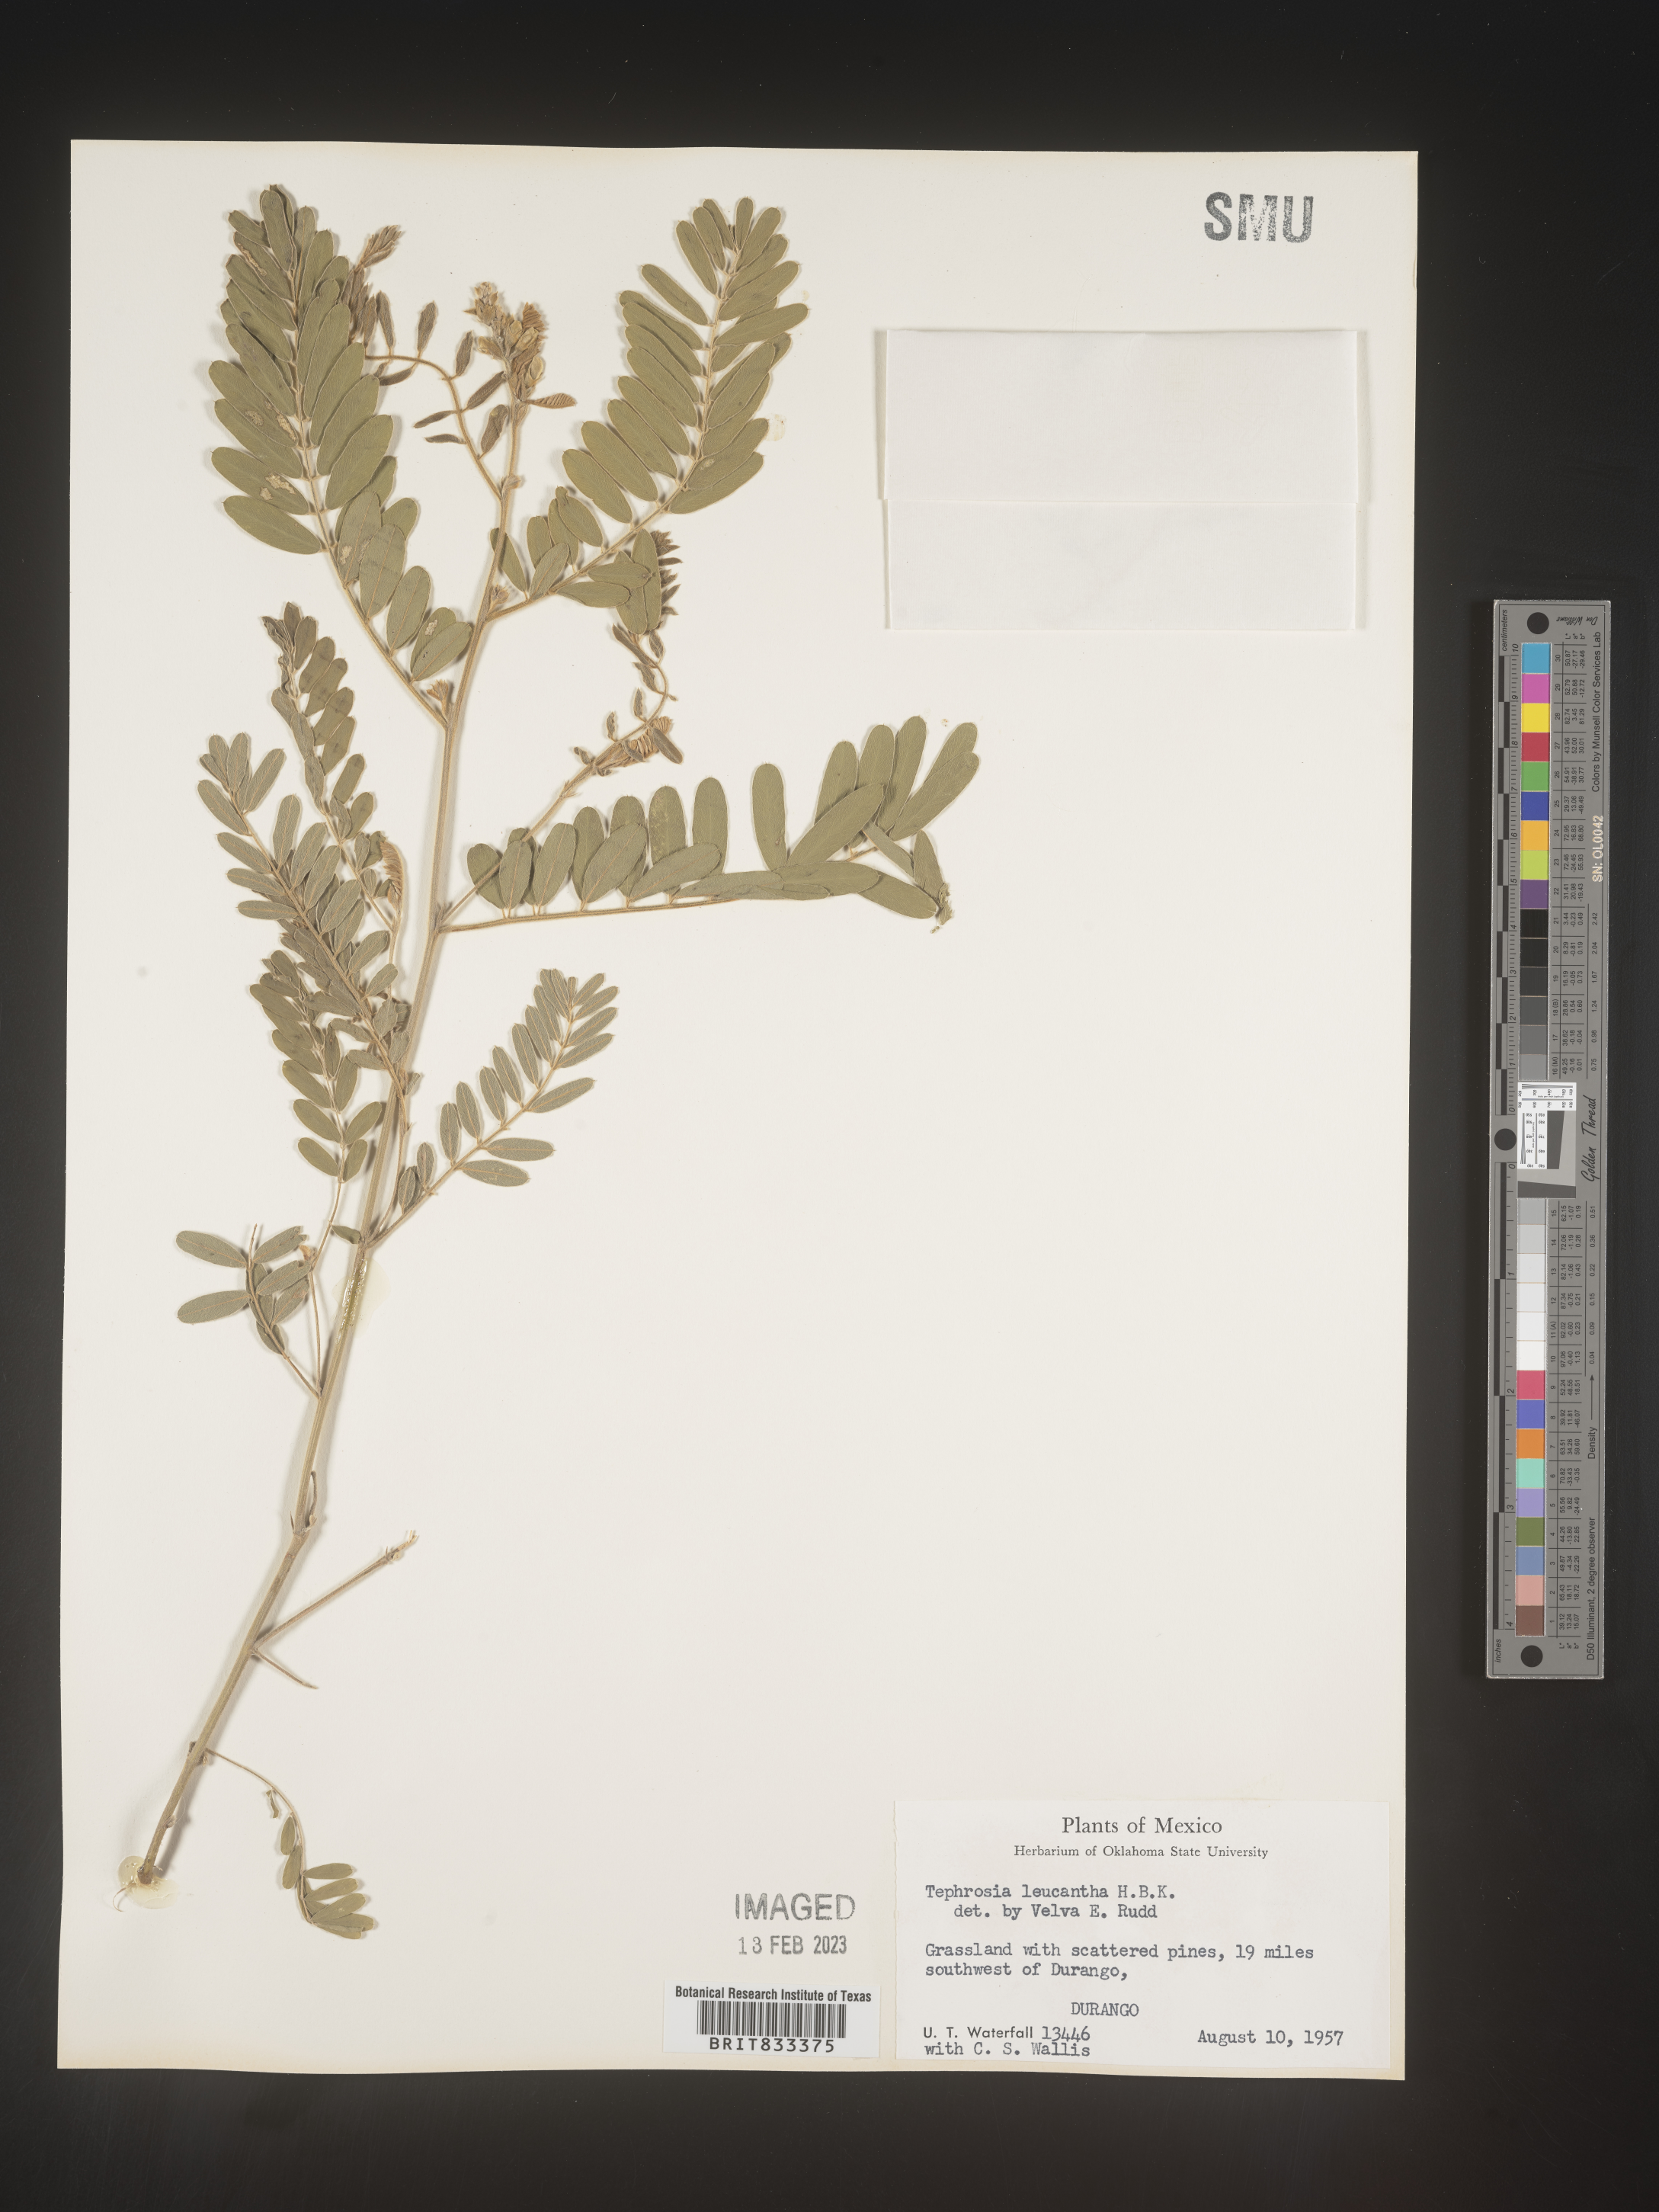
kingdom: Plantae
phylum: Tracheophyta
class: Magnoliopsida
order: Fabales
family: Fabaceae
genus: Tephrosia
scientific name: Tephrosia
